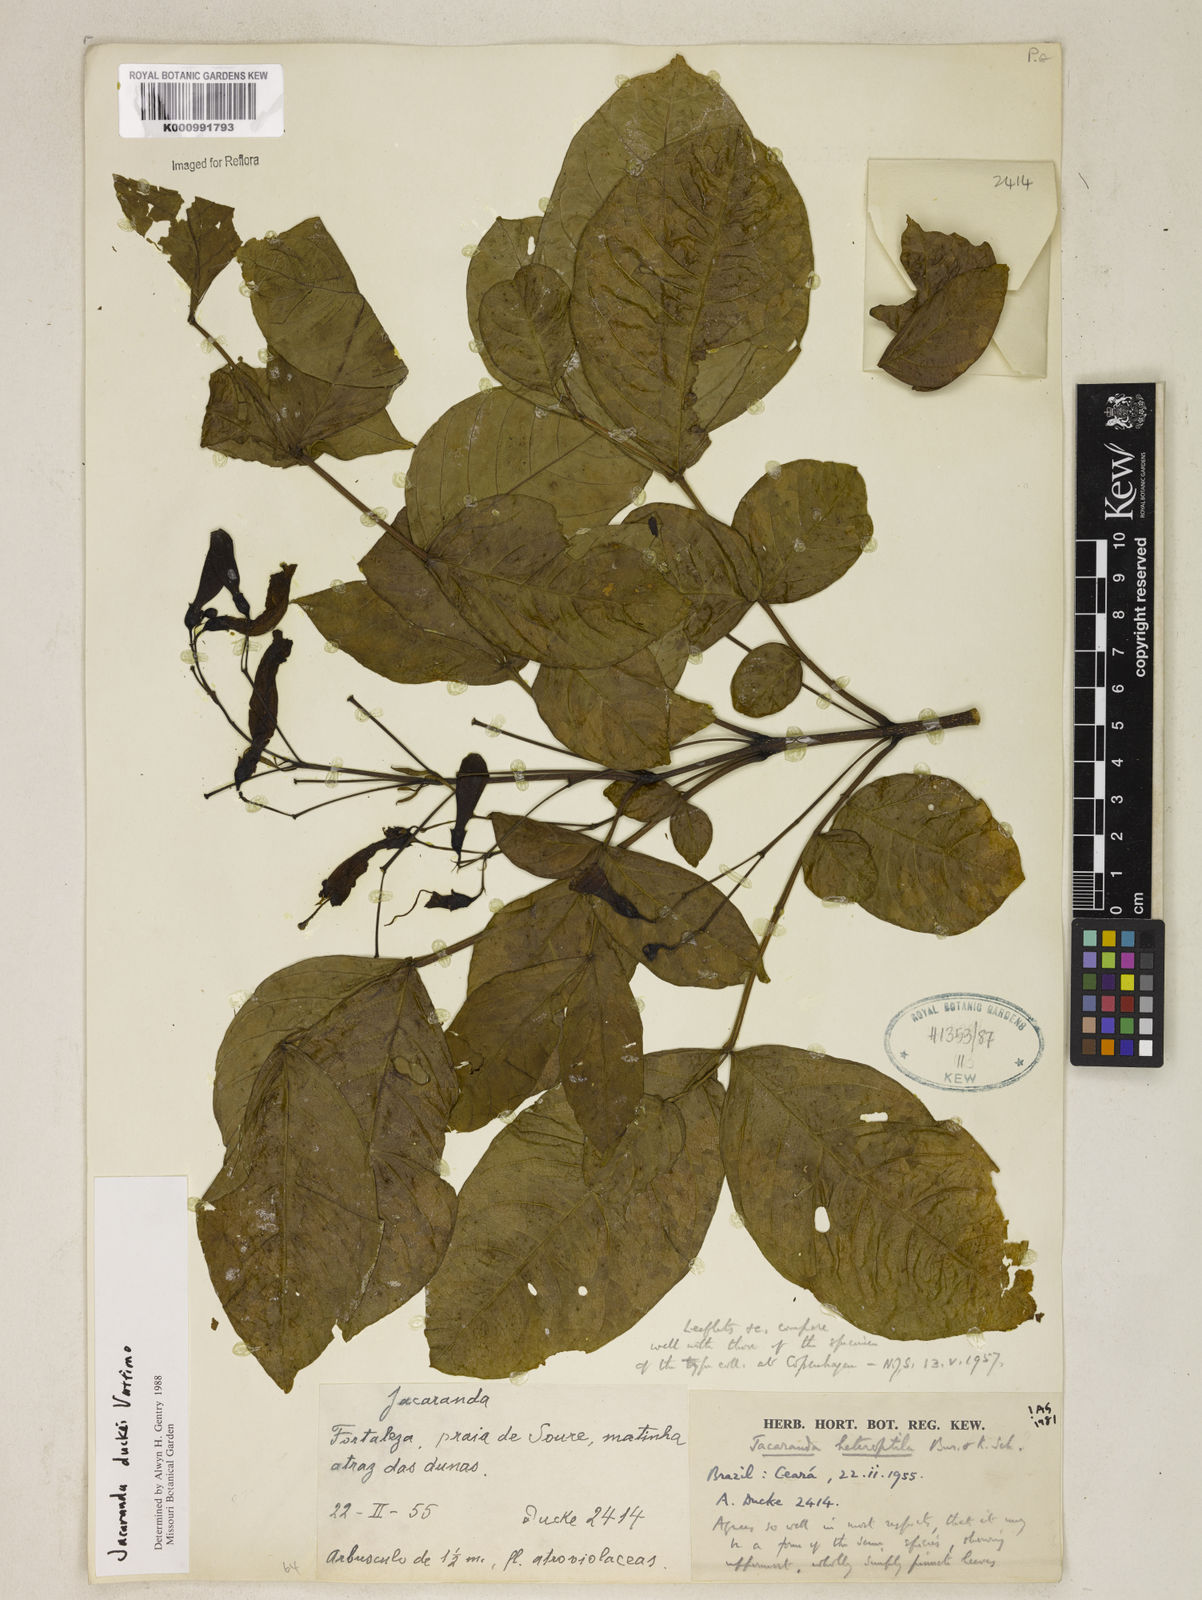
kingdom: Plantae
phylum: Tracheophyta
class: Magnoliopsida
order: Lamiales
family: Bignoniaceae
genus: Jacaranda
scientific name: Jacaranda duckei
